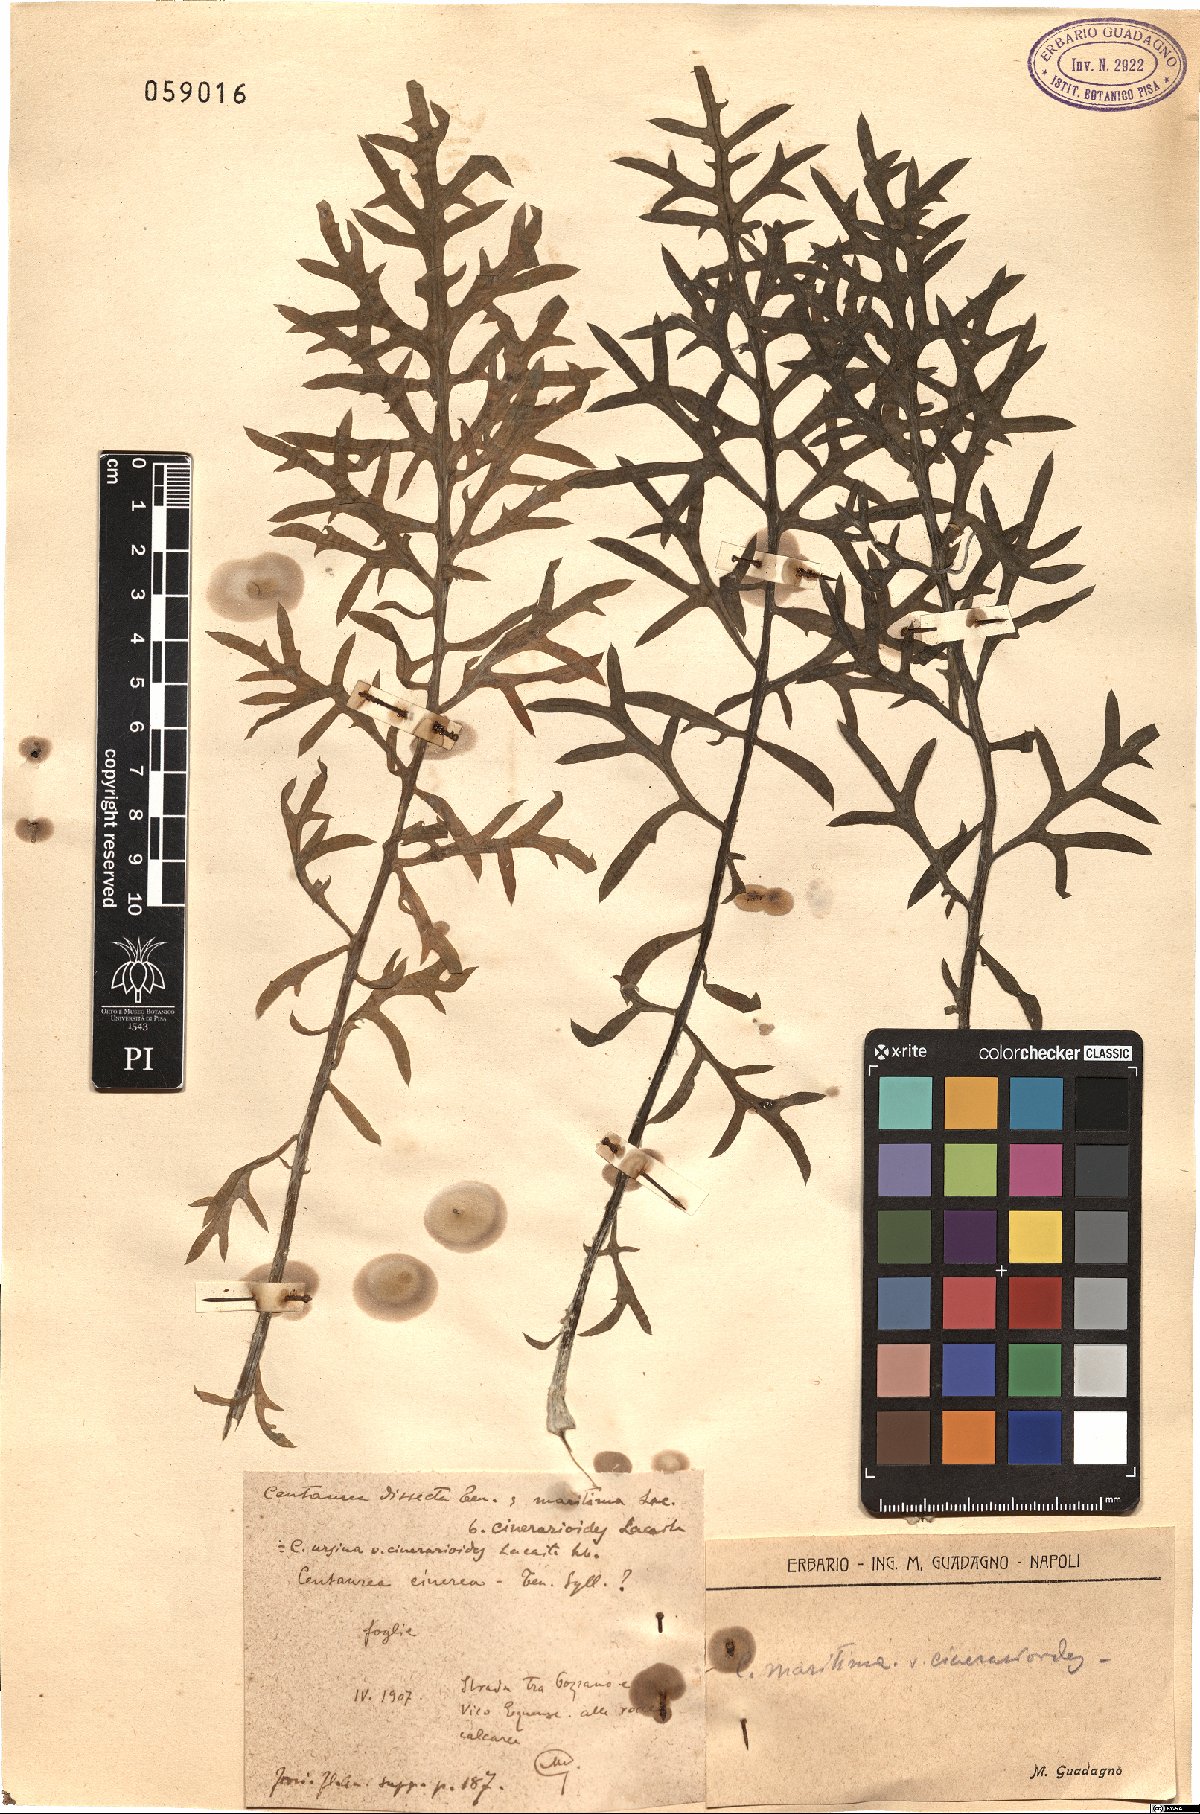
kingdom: Plantae
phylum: Tracheophyta
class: Magnoliopsida
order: Asterales
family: Asteraceae
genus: Centaurea
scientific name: Centaurea tenorei
